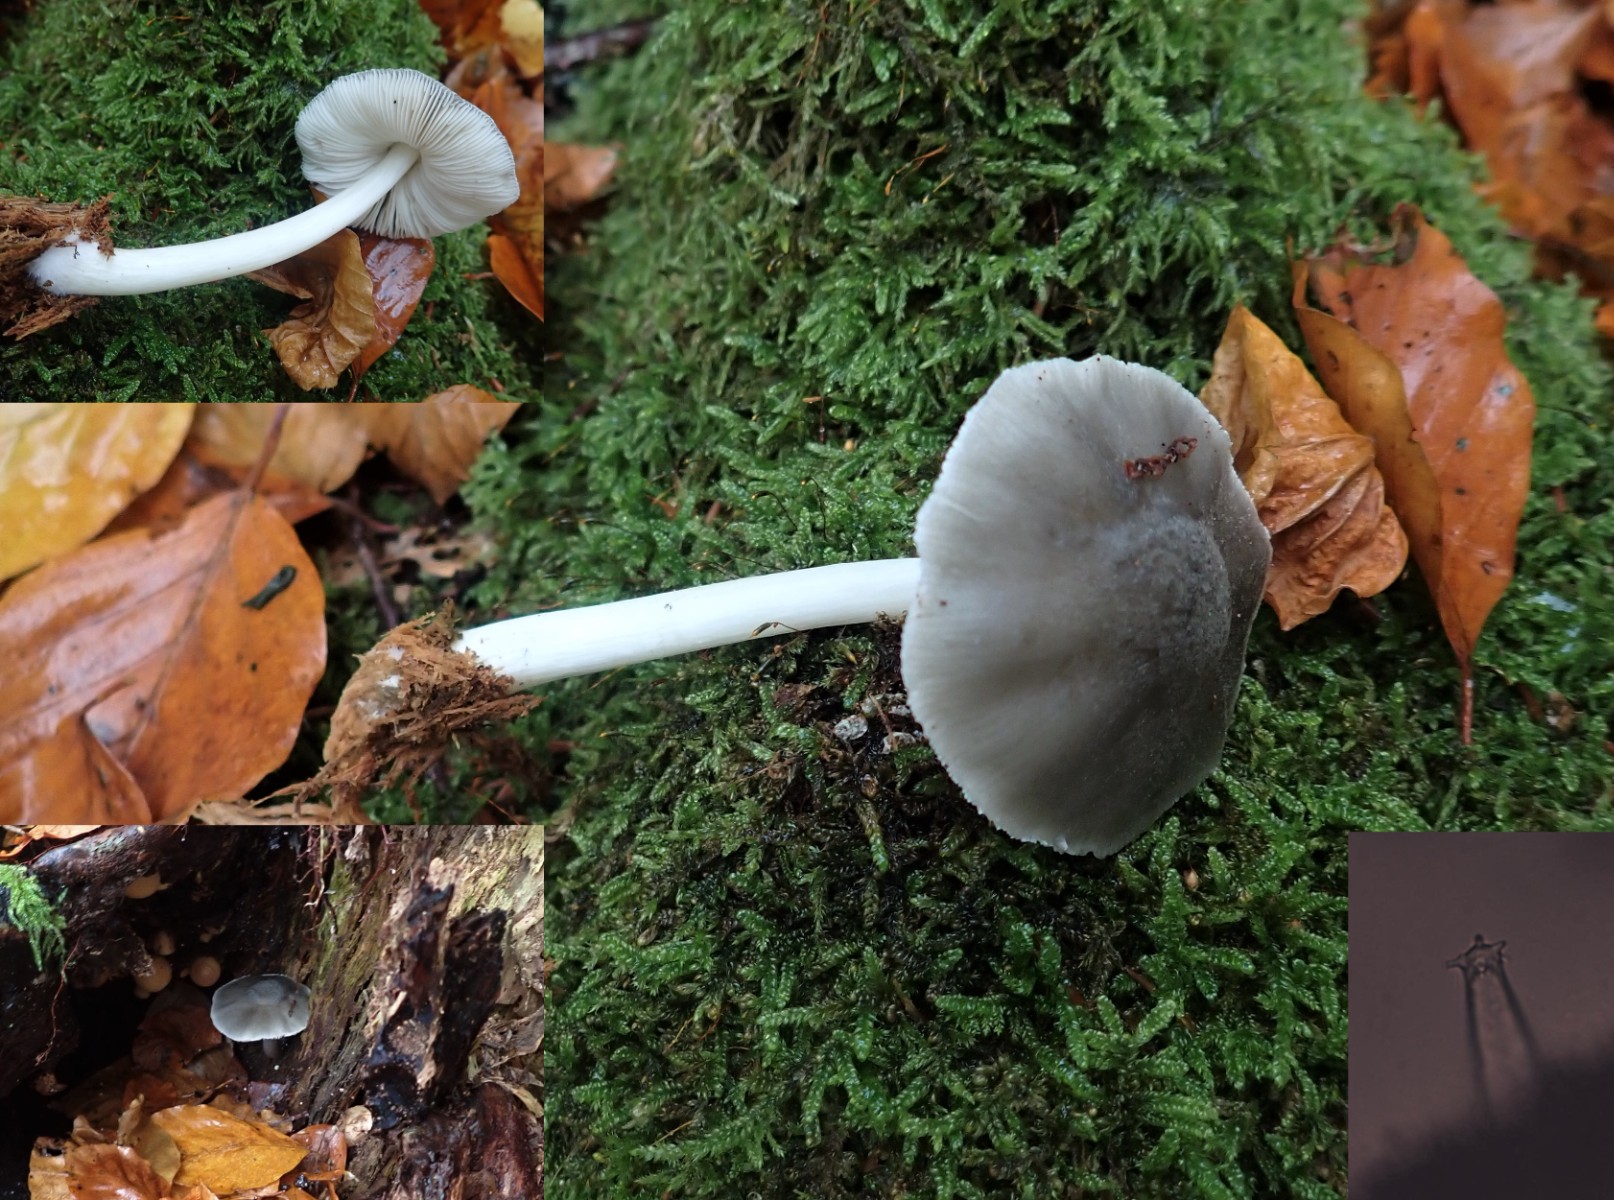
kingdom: Fungi
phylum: Basidiomycota
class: Agaricomycetes
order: Agaricales
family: Pluteaceae
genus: Pluteus
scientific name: Pluteus salicinus
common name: stiv skærmhat
